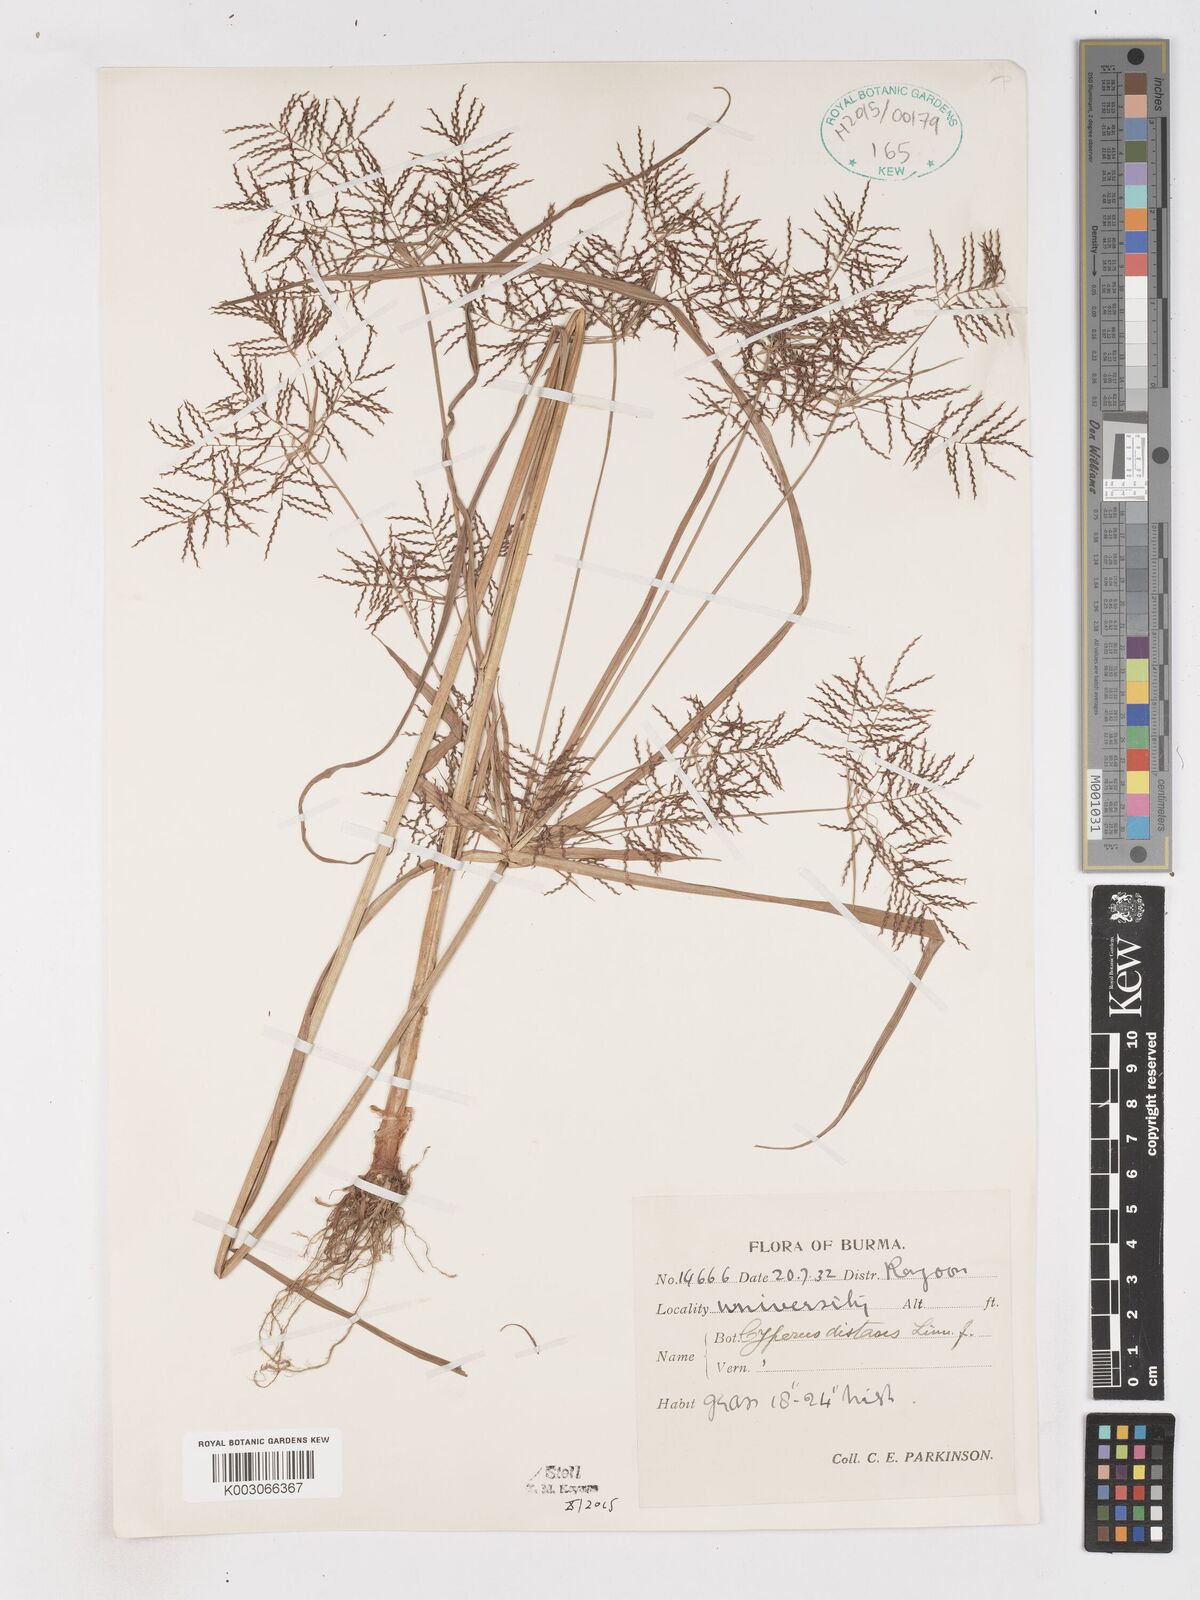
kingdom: Plantae
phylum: Tracheophyta
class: Liliopsida
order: Poales
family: Cyperaceae
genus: Cyperus
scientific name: Cyperus distans
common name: Slender cyperus
